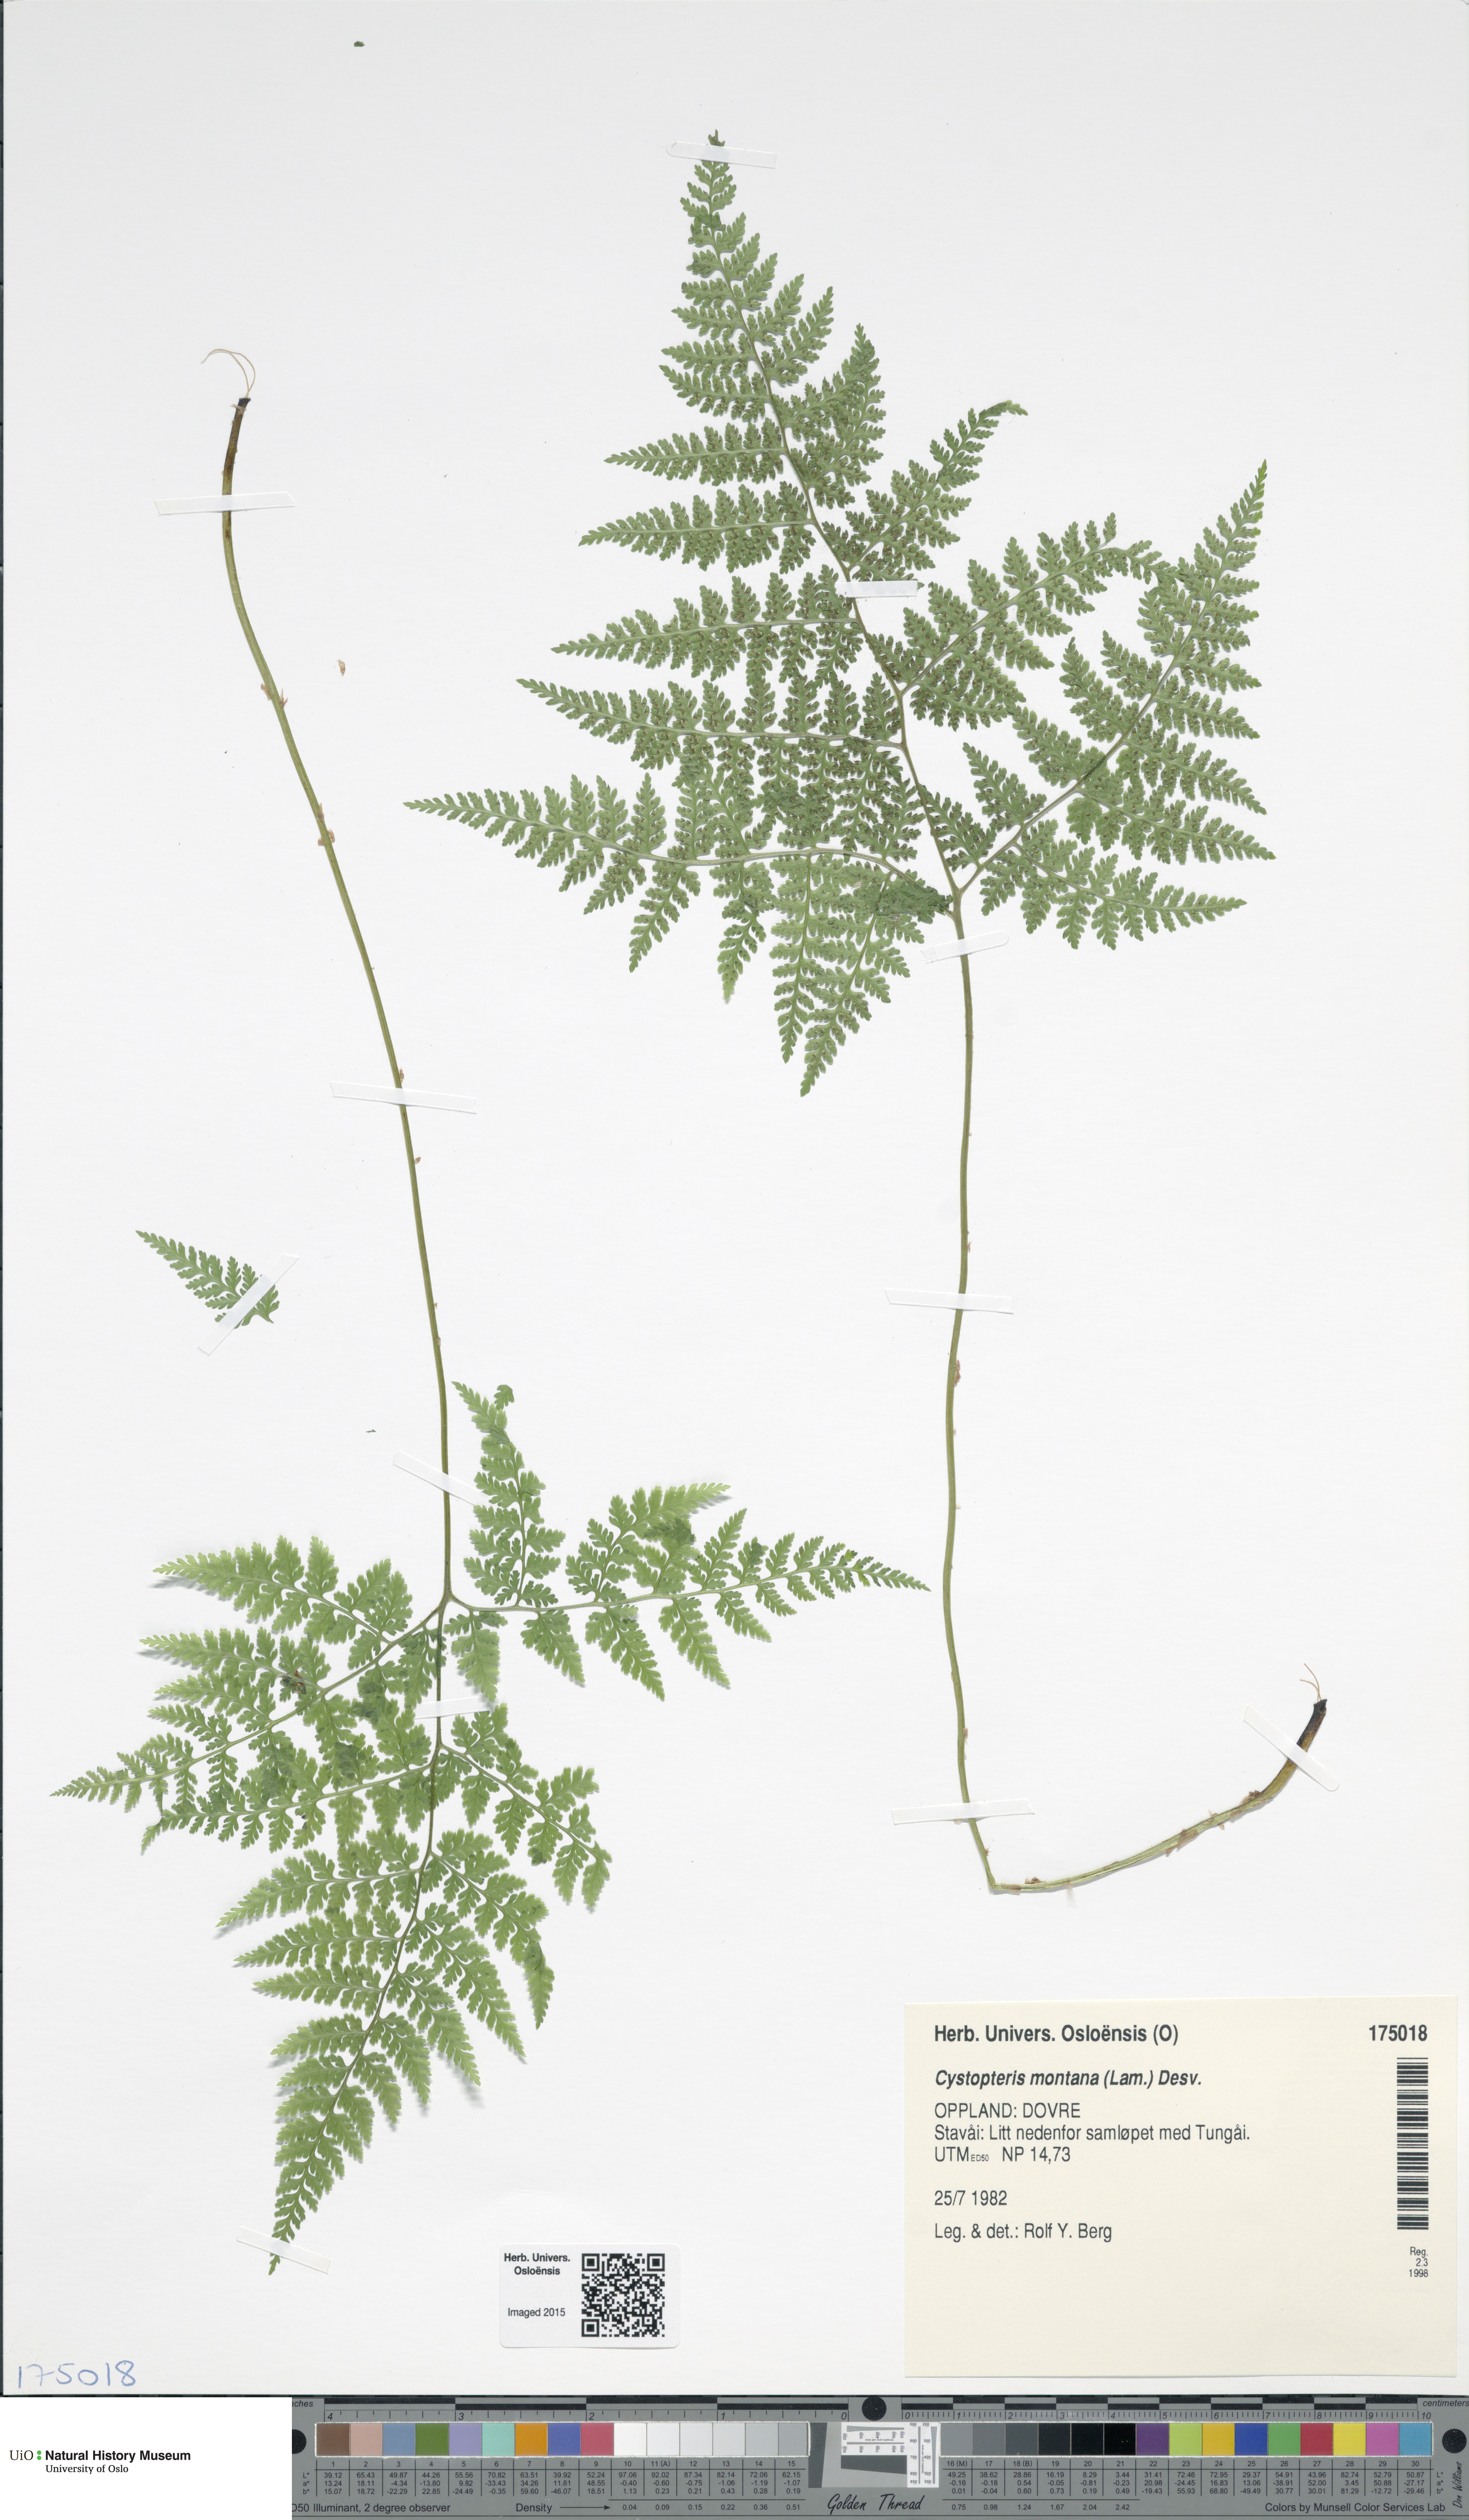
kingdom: Plantae
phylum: Tracheophyta
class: Polypodiopsida
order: Polypodiales
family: Cystopteridaceae
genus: Cystopteris
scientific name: Cystopteris montana
